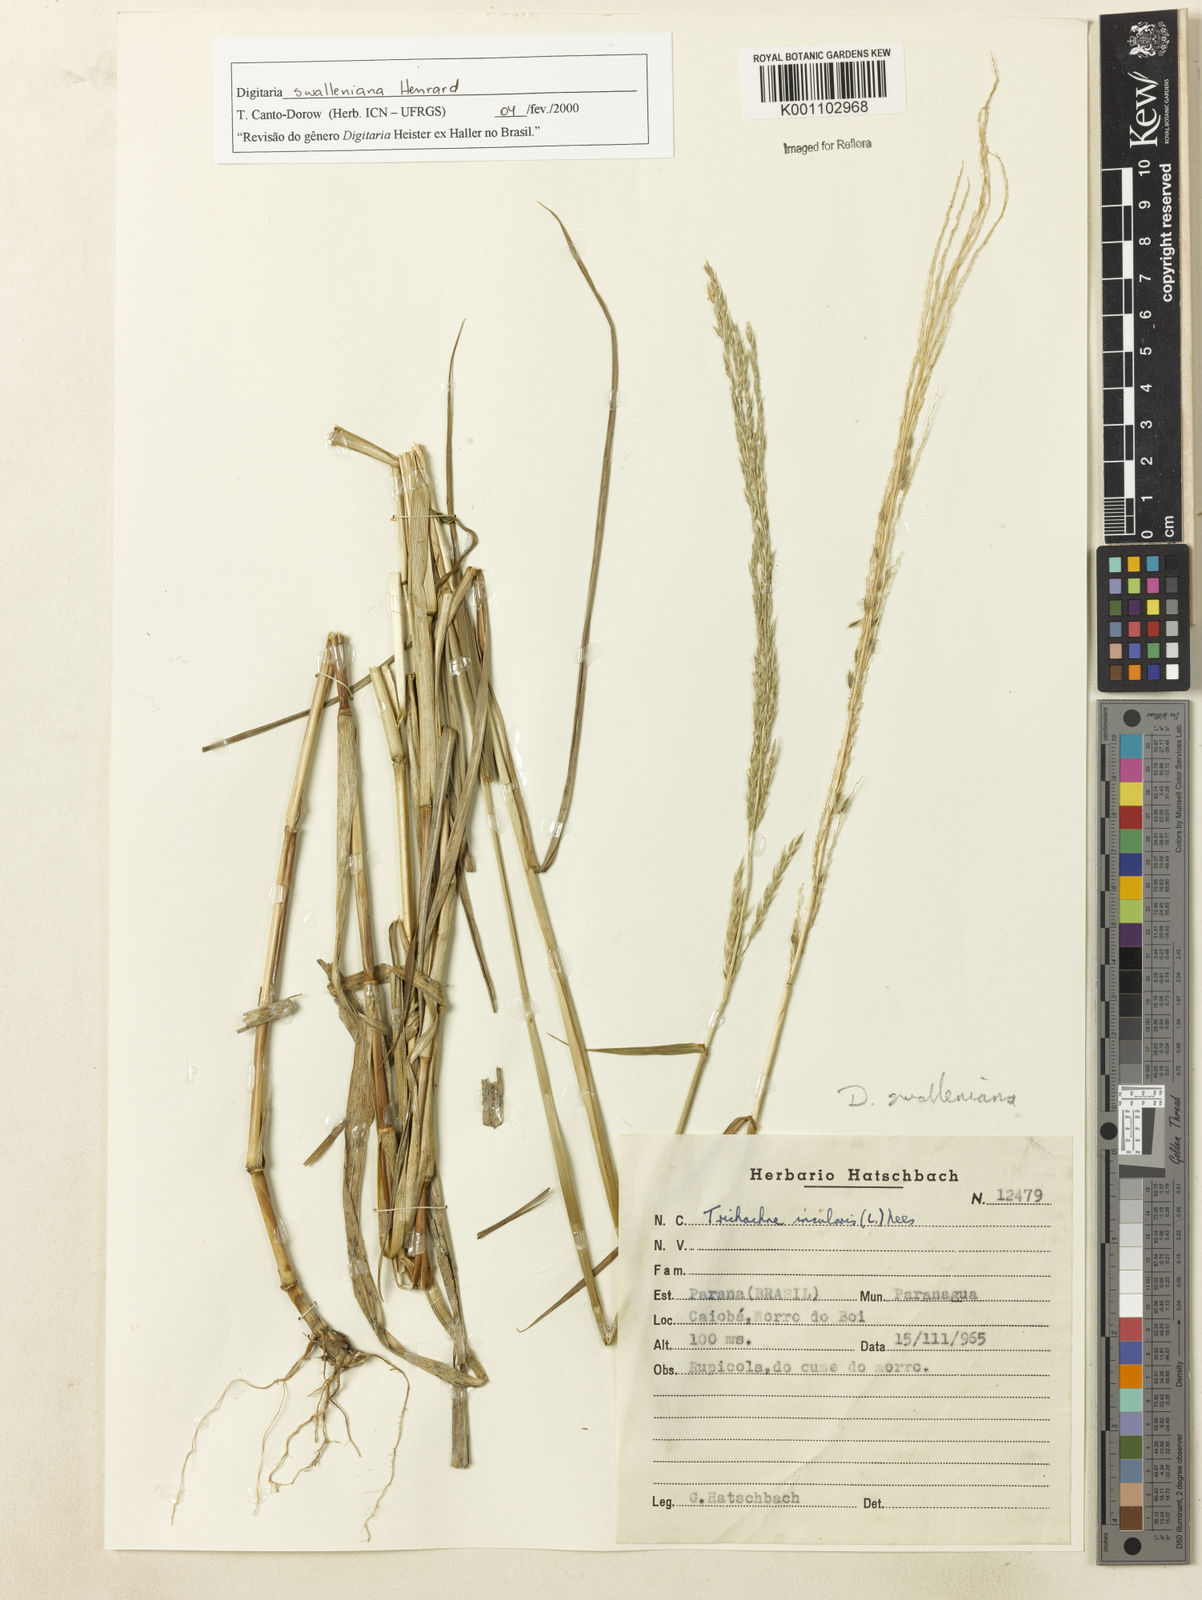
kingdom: Plantae
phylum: Tracheophyta
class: Liliopsida
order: Poales
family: Poaceae
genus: Digitaria
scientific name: Digitaria swalleniana
